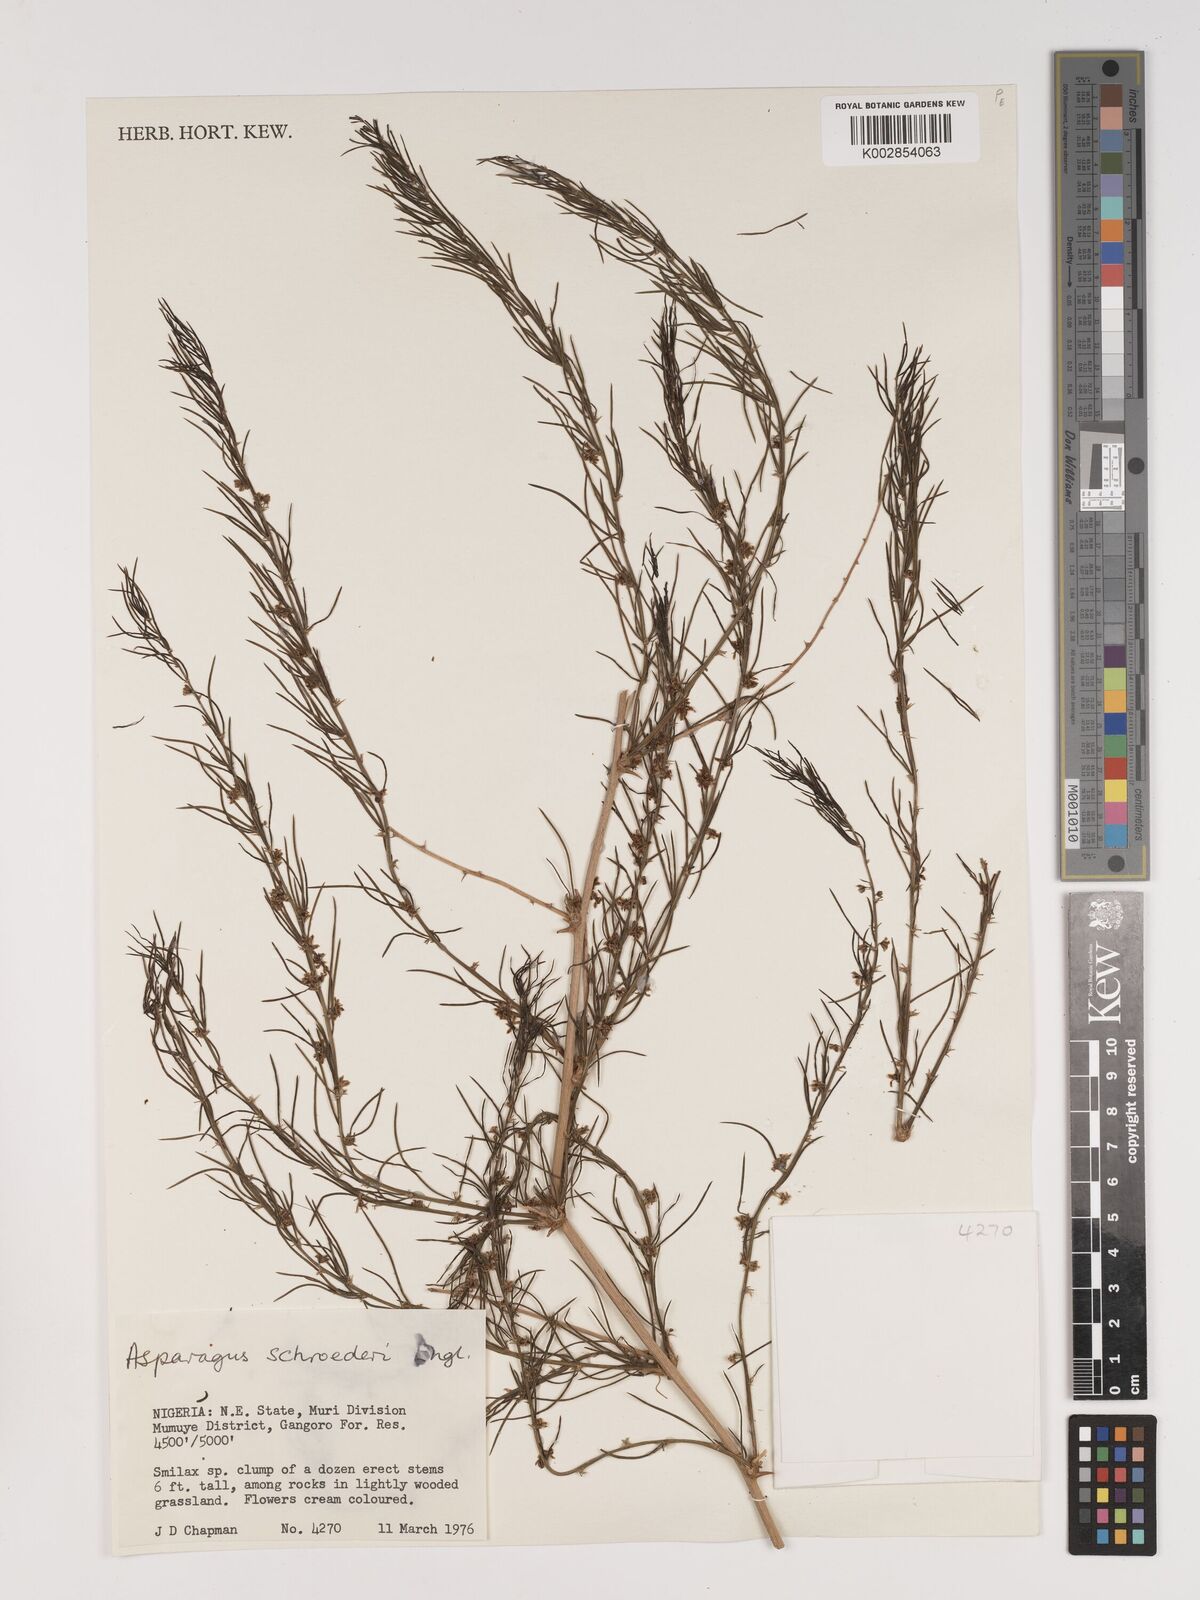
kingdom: Plantae
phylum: Tracheophyta
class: Liliopsida
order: Asparagales
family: Asparagaceae
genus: Asparagus
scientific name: Asparagus schroederi
